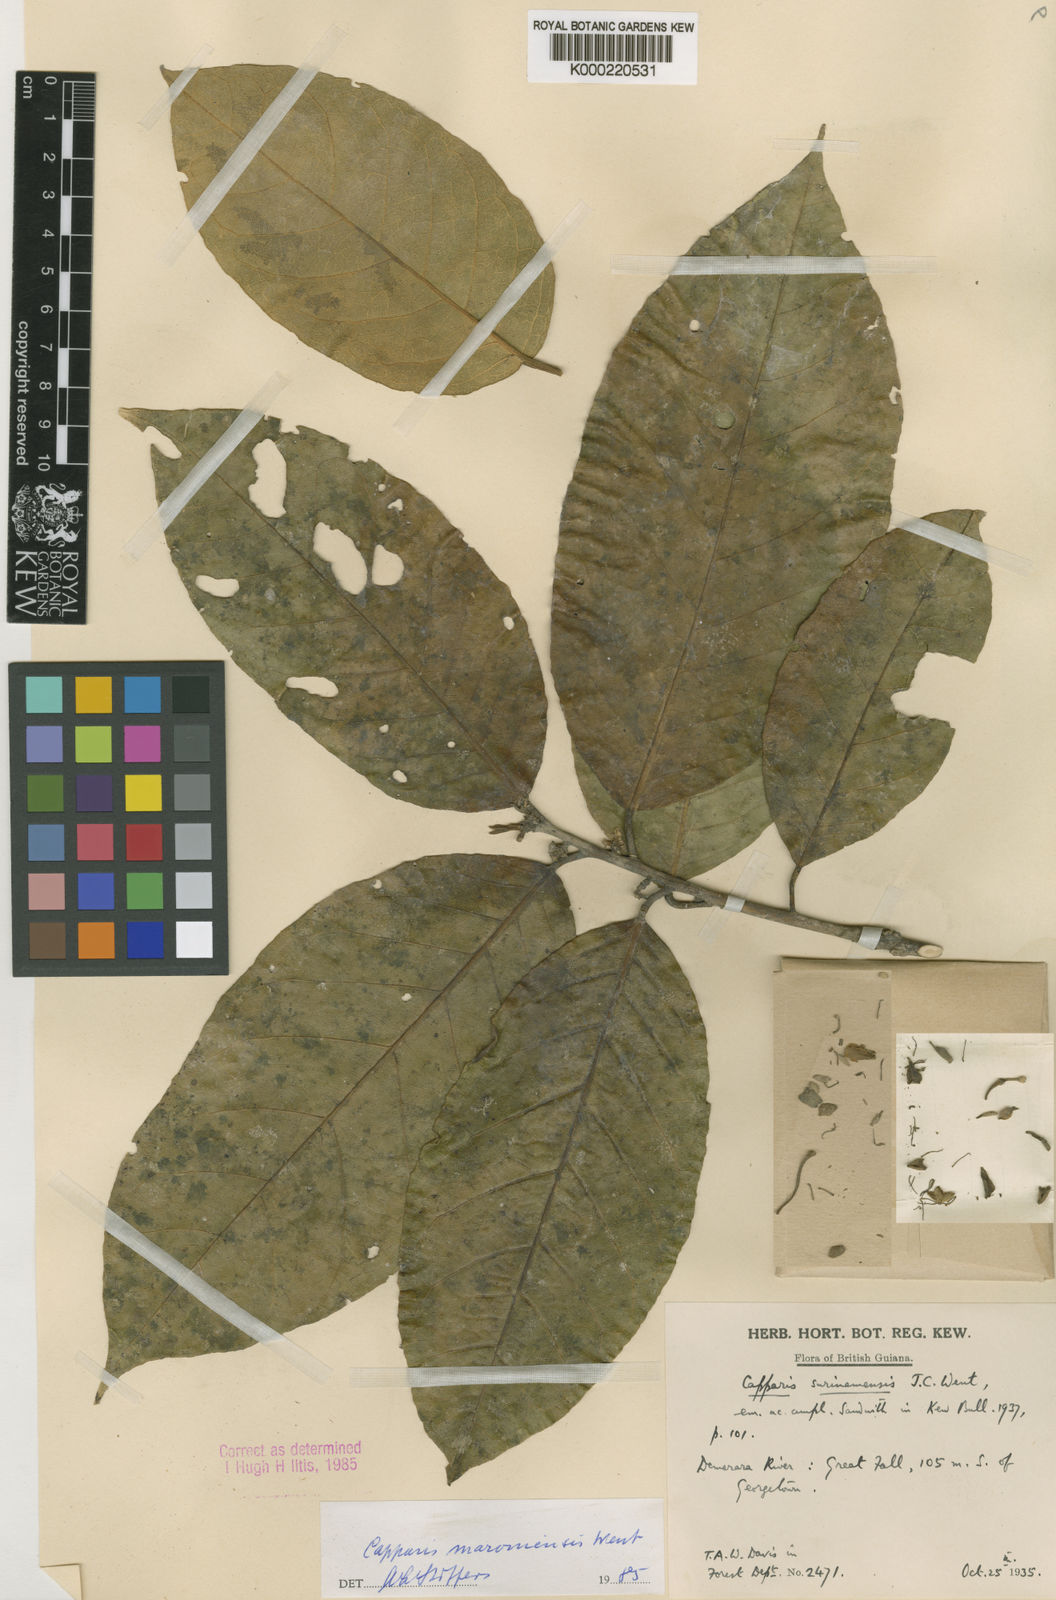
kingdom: Plantae
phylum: Tracheophyta
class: Magnoliopsida
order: Brassicales
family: Capparaceae
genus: Neocalyptrocalyx
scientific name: Neocalyptrocalyx maroniensis
